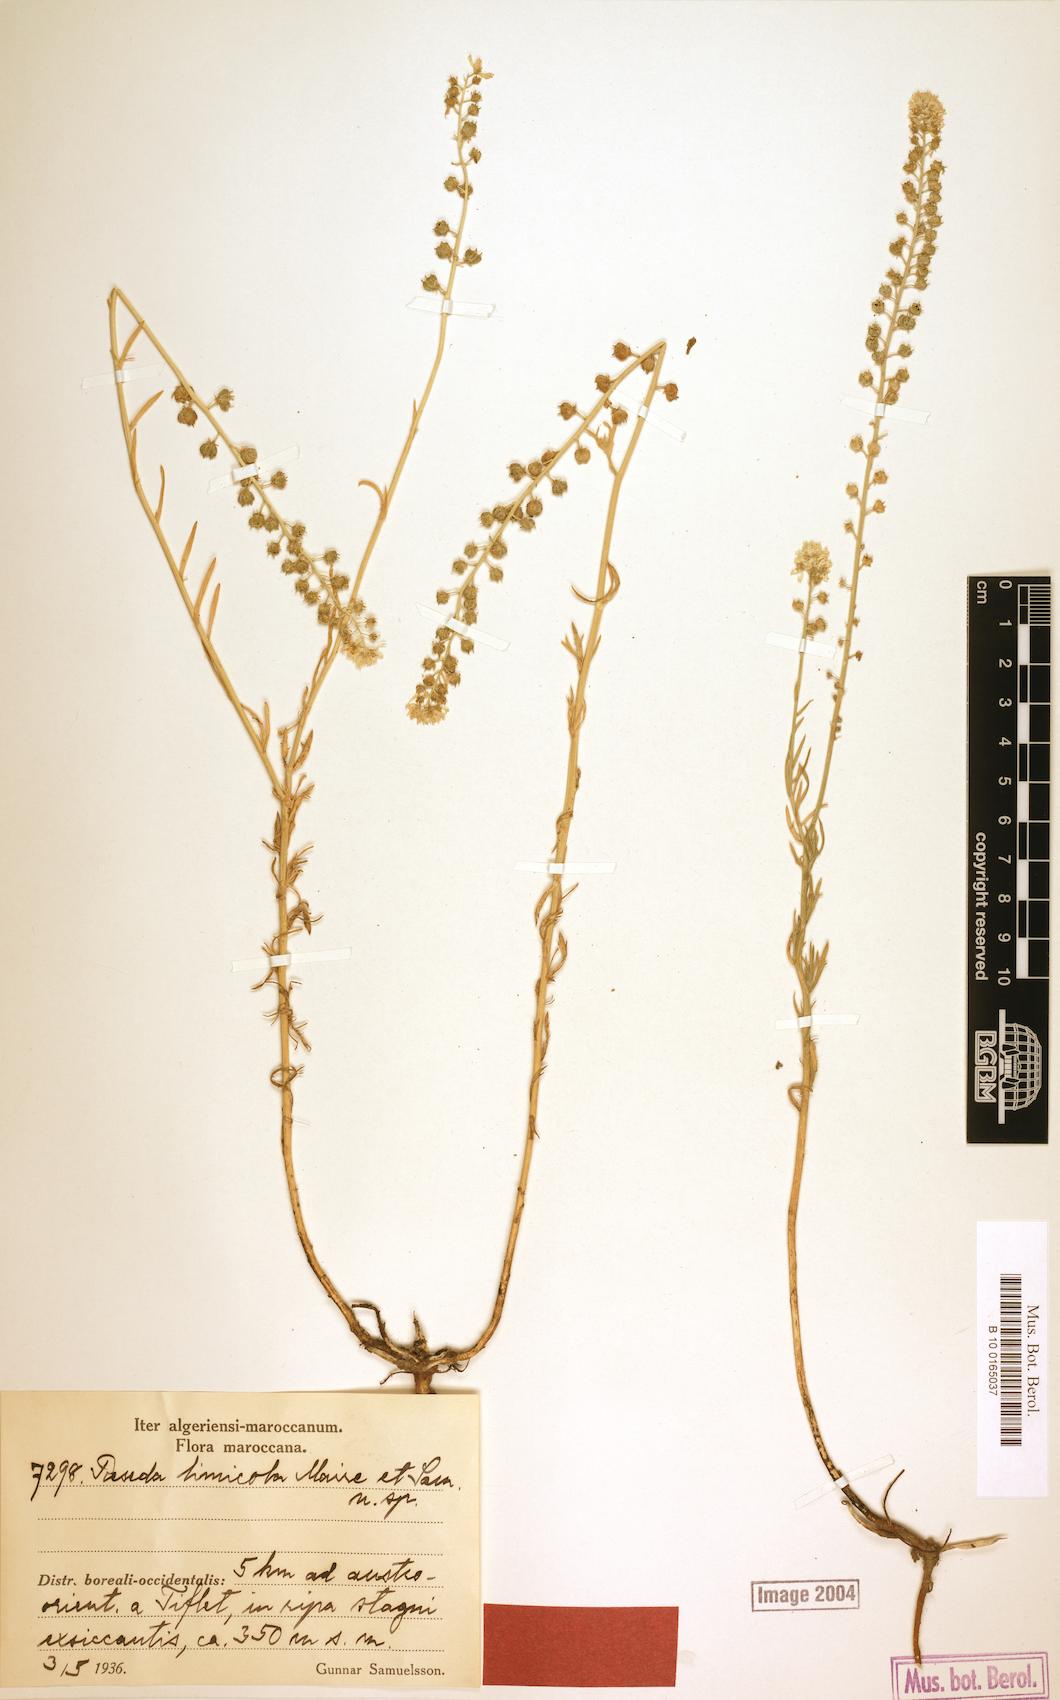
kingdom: Plantae
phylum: Tracheophyta
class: Magnoliopsida
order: Brassicales
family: Resedaceae
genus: Reseda
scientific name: Reseda battandieri
